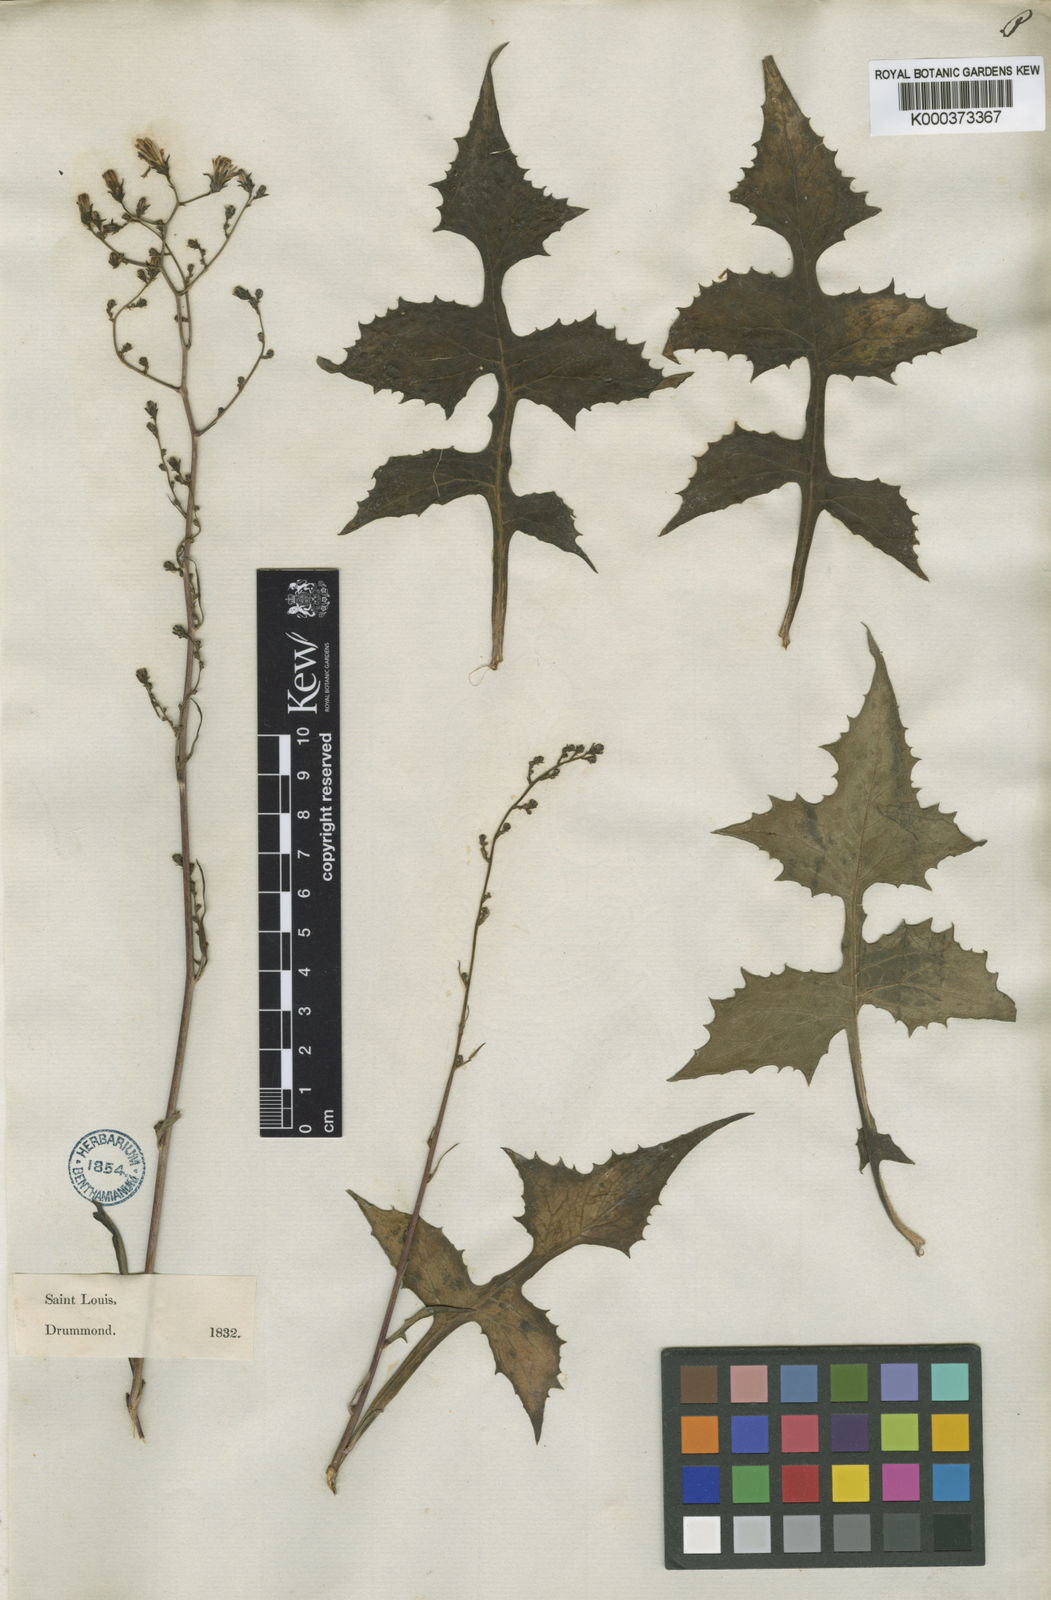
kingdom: Plantae
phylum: Tracheophyta
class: Magnoliopsida
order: Asterales
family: Asteraceae
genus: Lactuca
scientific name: Lactuca floridana
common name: Woodland lettuce
